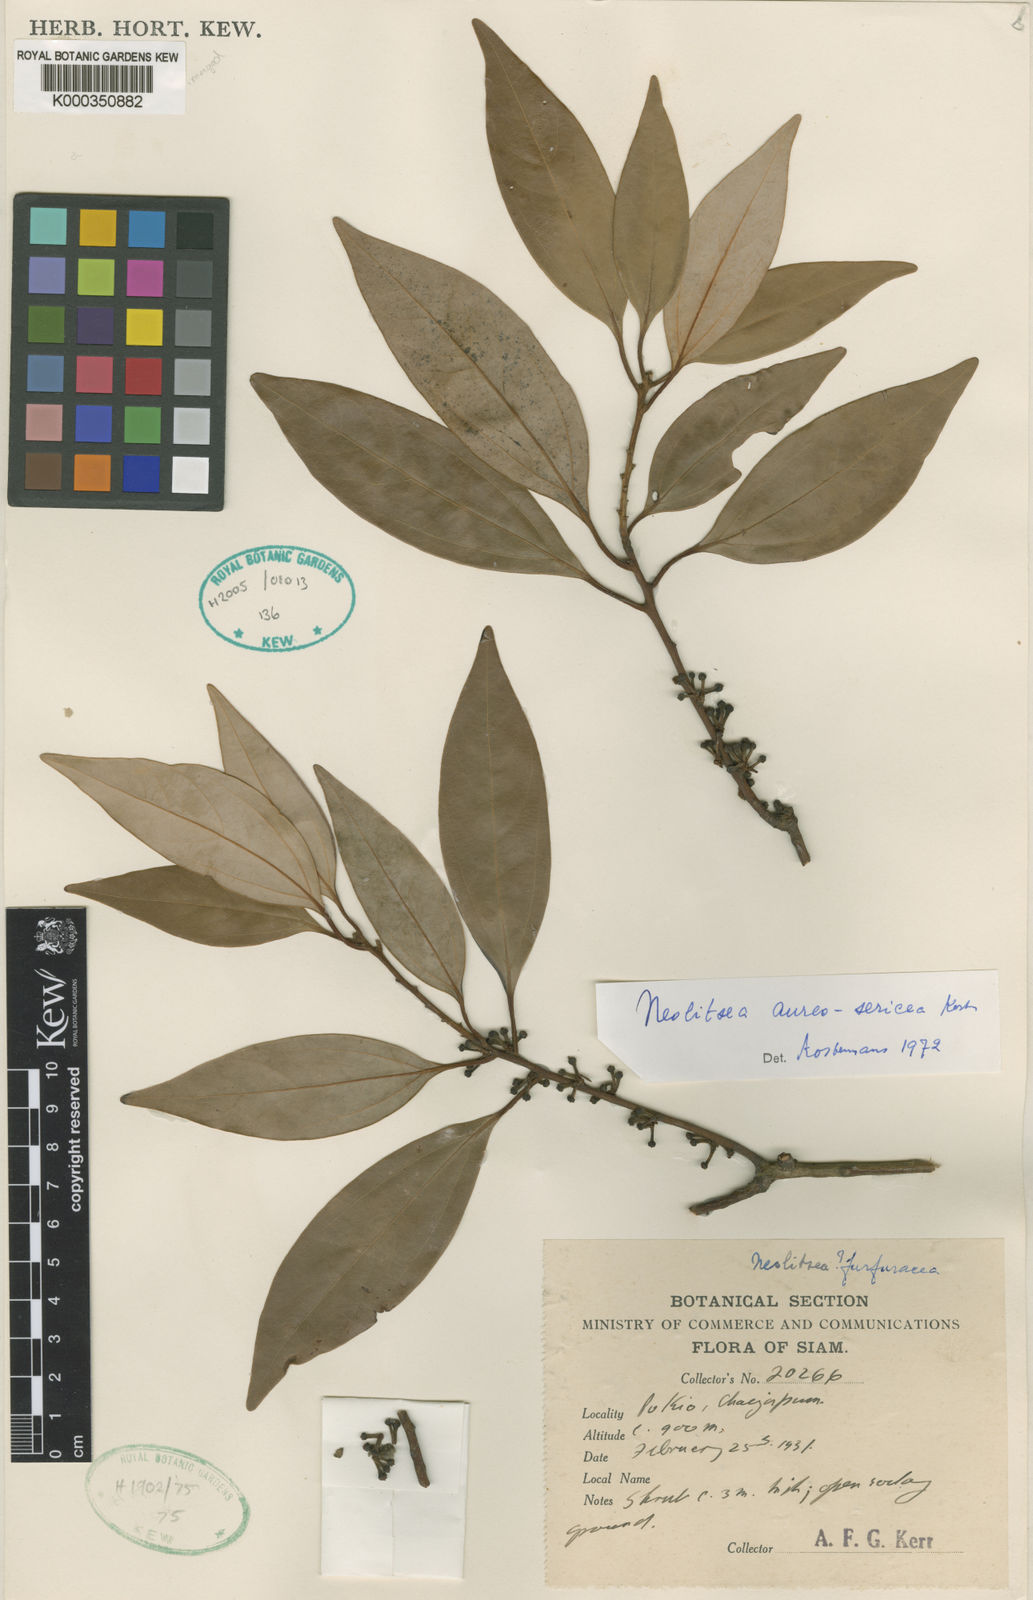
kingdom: Plantae
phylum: Tracheophyta
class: Magnoliopsida
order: Laurales
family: Lauraceae
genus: Neolitsea
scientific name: Neolitsea aureosericea
